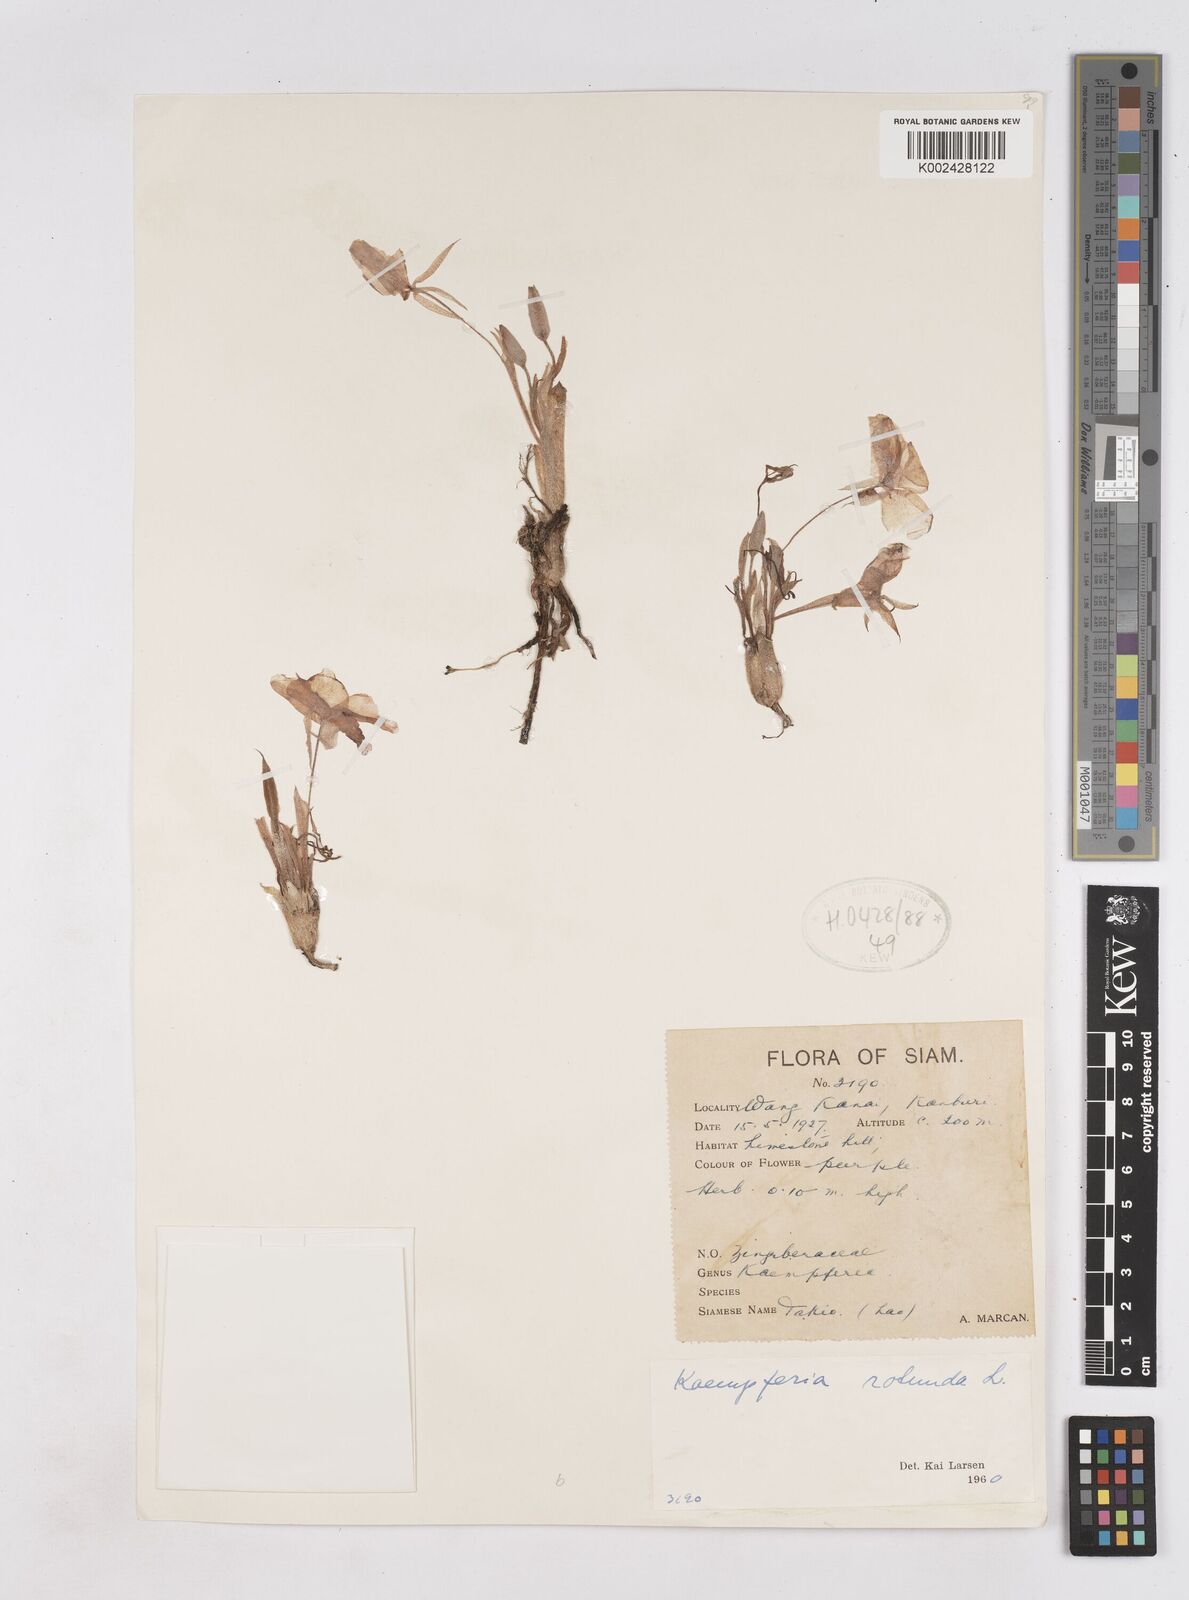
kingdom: Plantae
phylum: Tracheophyta
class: Liliopsida
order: Zingiberales
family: Zingiberaceae
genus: Kaempferia
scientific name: Kaempferia rotunda
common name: Tropical-crocus
